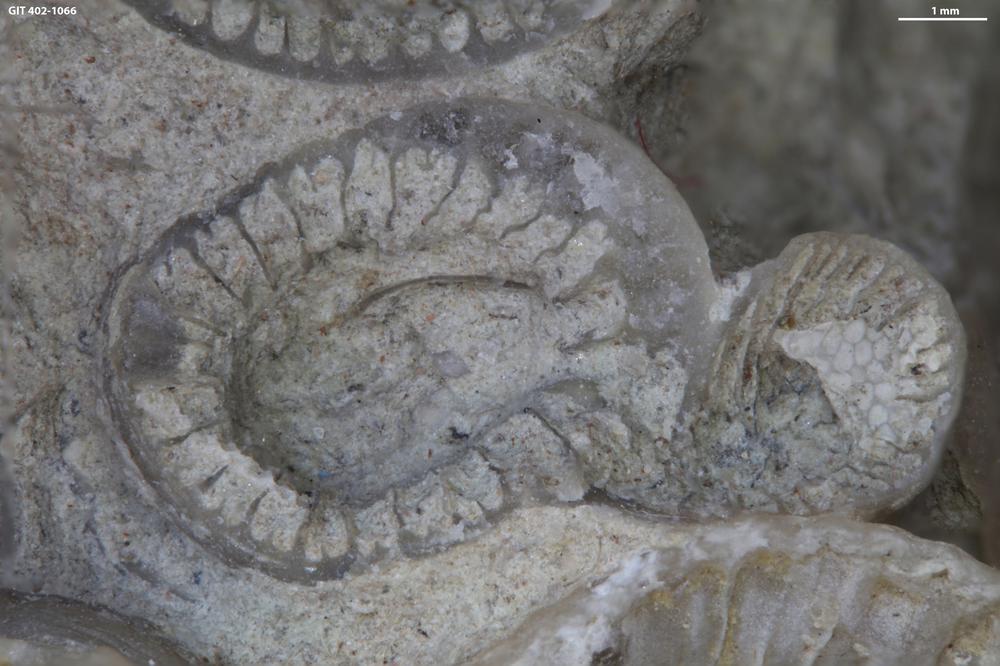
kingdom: Animalia
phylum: Cnidaria
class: Anthozoa
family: Entelophyllidae
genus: Entelophyllum
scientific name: Entelophyllum
